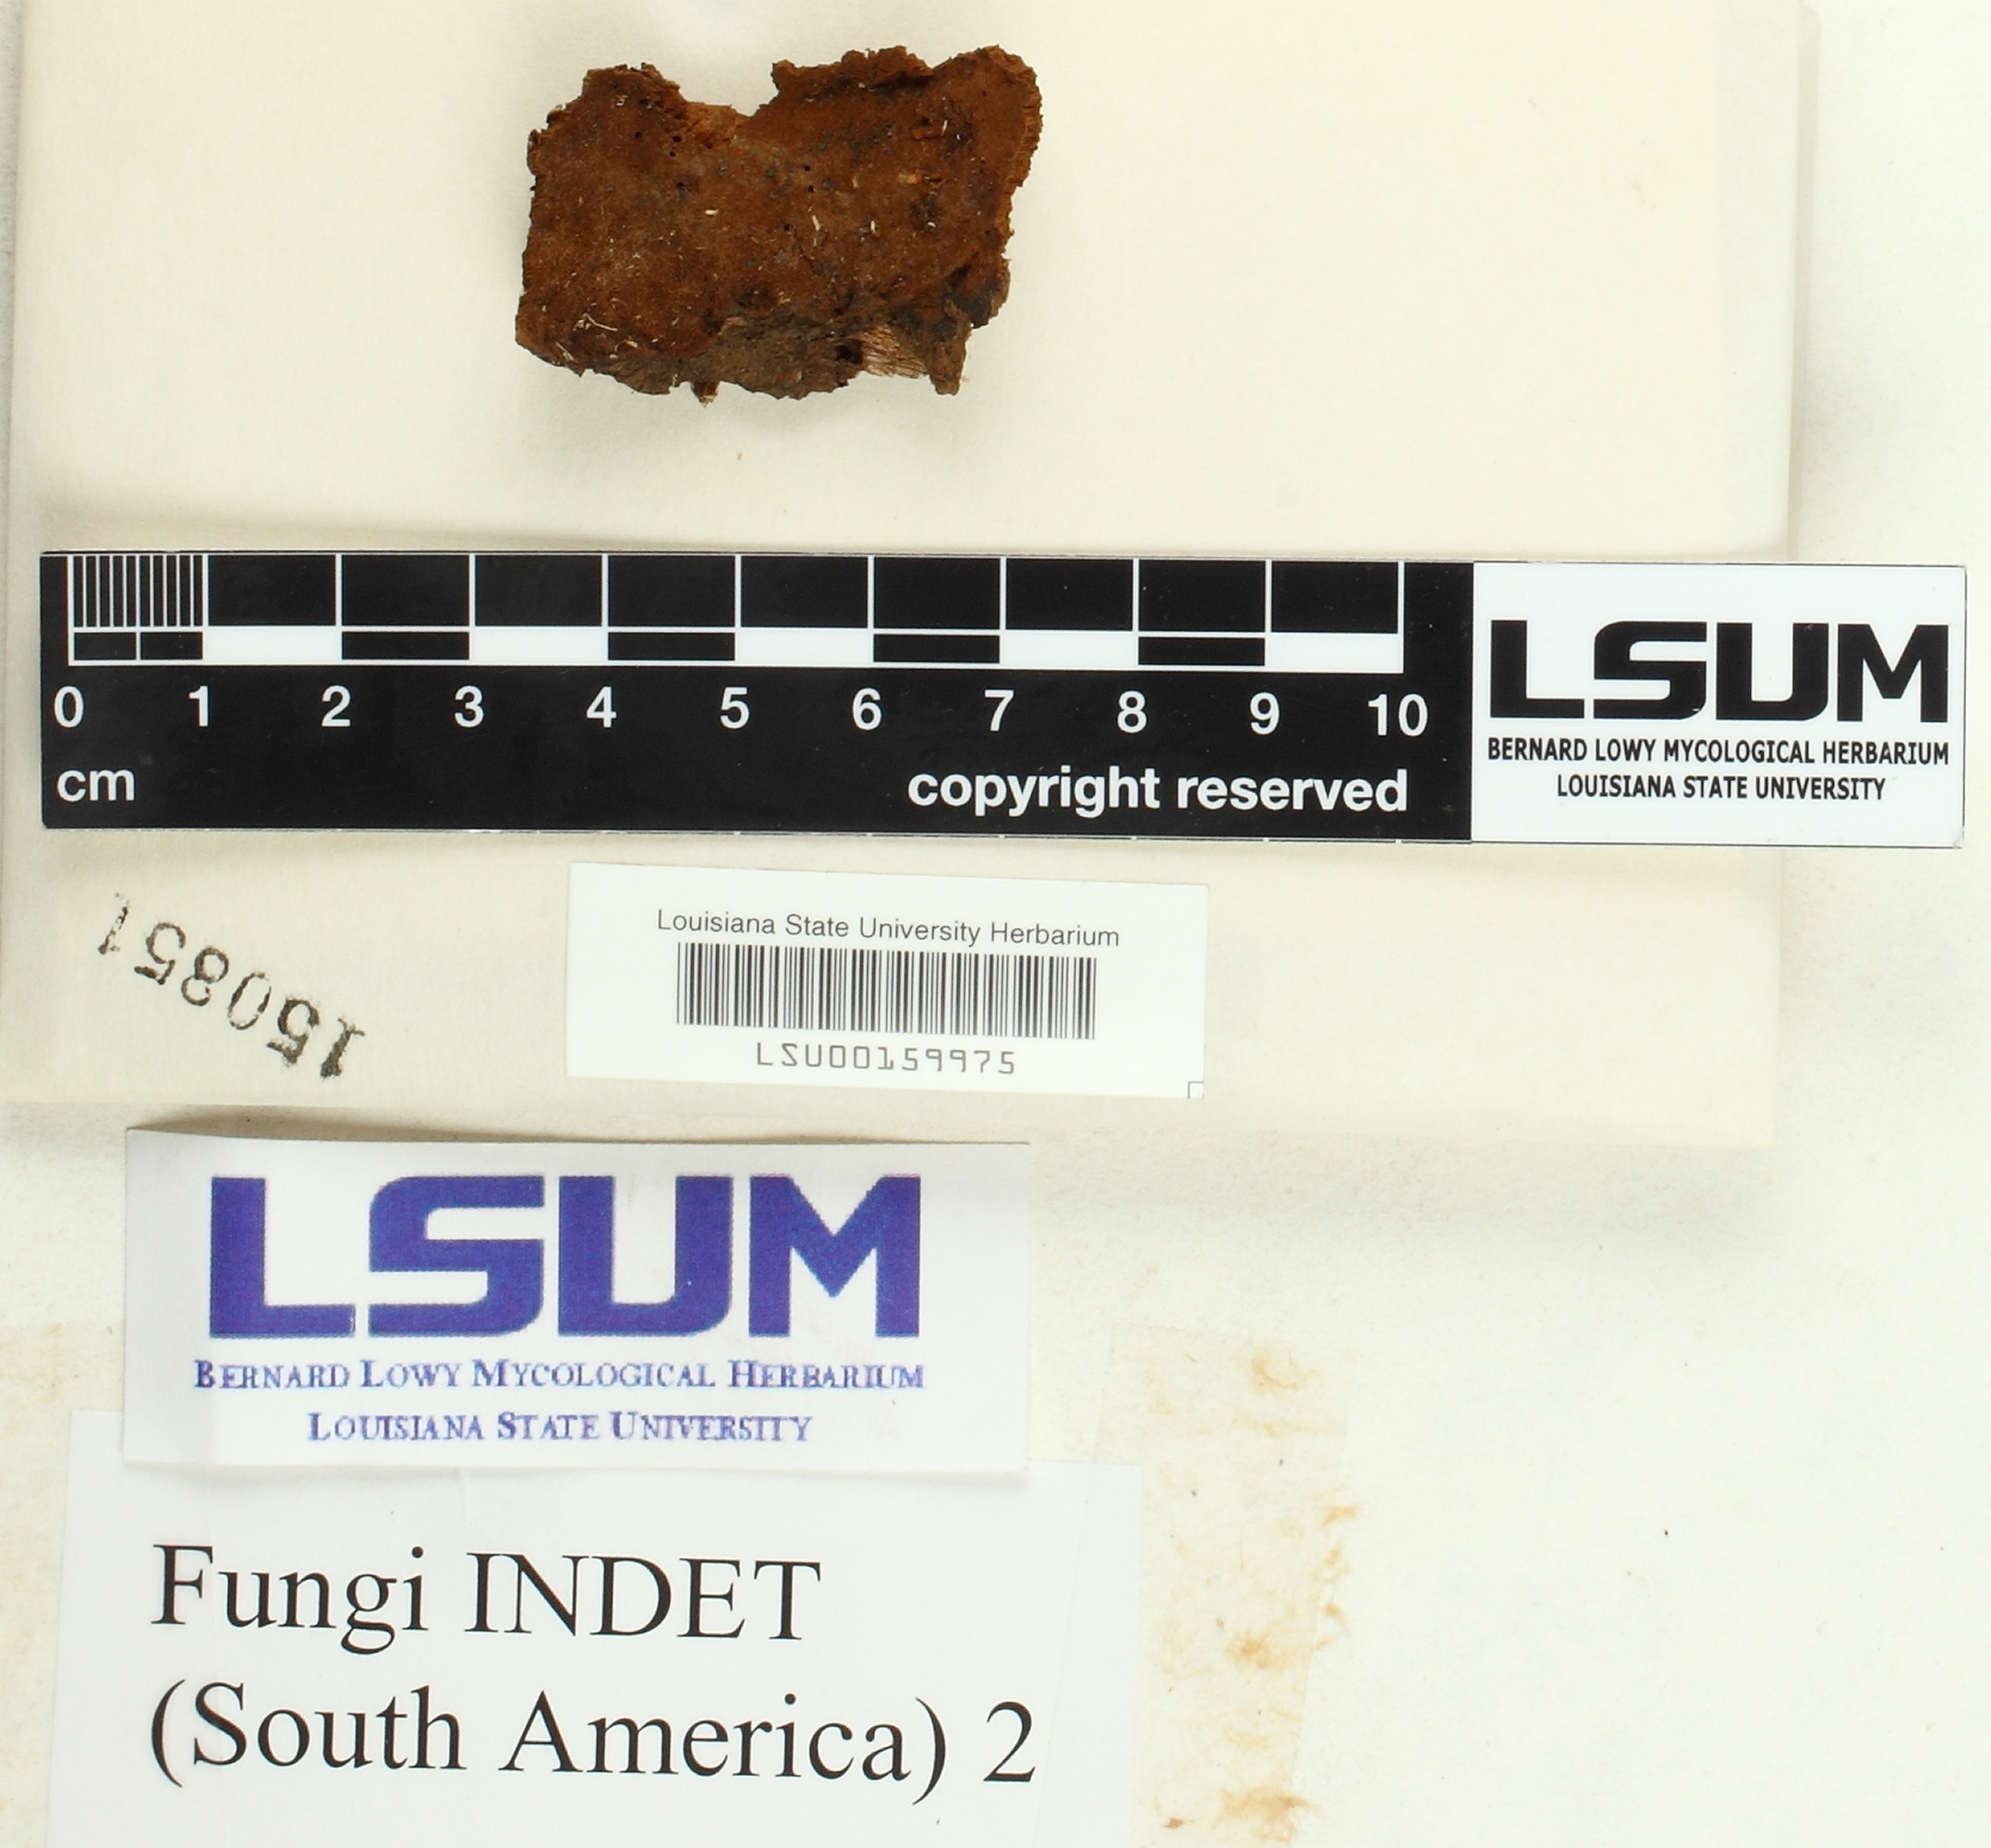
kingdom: Fungi
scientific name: Fungi
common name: Fungi
